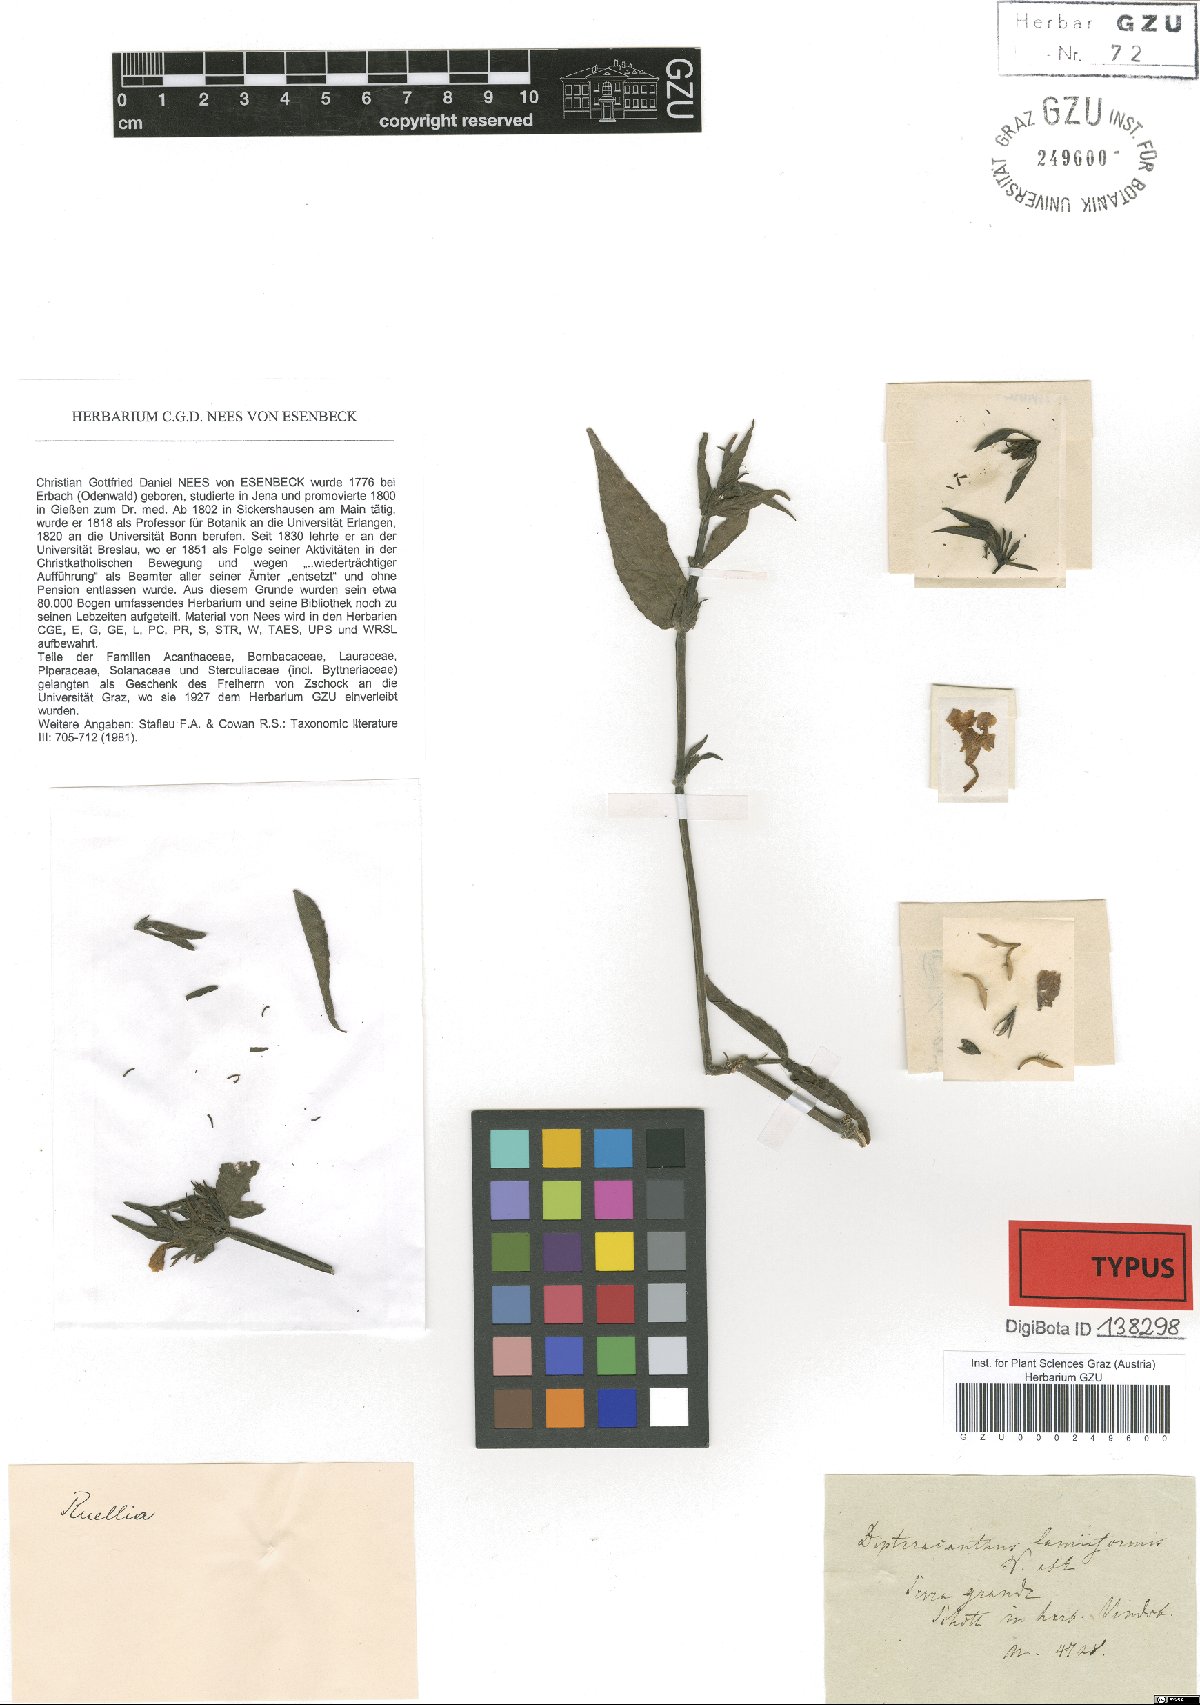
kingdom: Plantae
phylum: Tracheophyta
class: Magnoliopsida
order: Lamiales
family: Acanthaceae
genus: Ruellia
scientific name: Ruellia Dipteracanthus lamiiformis
